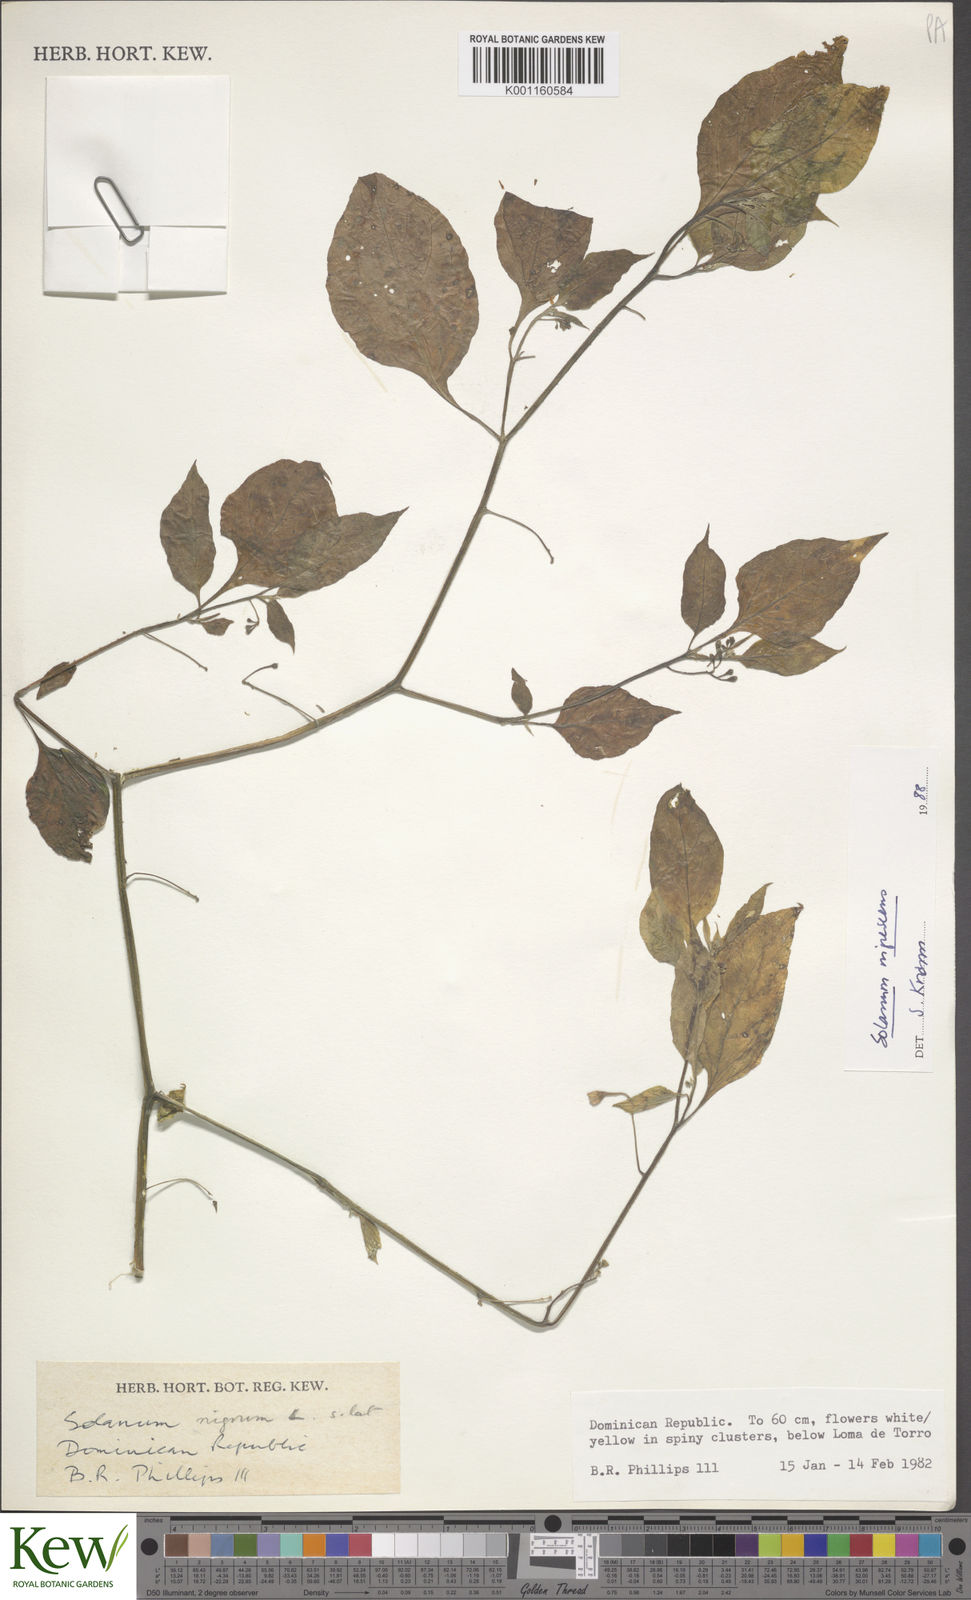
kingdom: Plantae
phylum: Tracheophyta
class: Magnoliopsida
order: Solanales
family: Solanaceae
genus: Solanum
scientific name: Solanum nigrescens
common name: Divine nightshade
